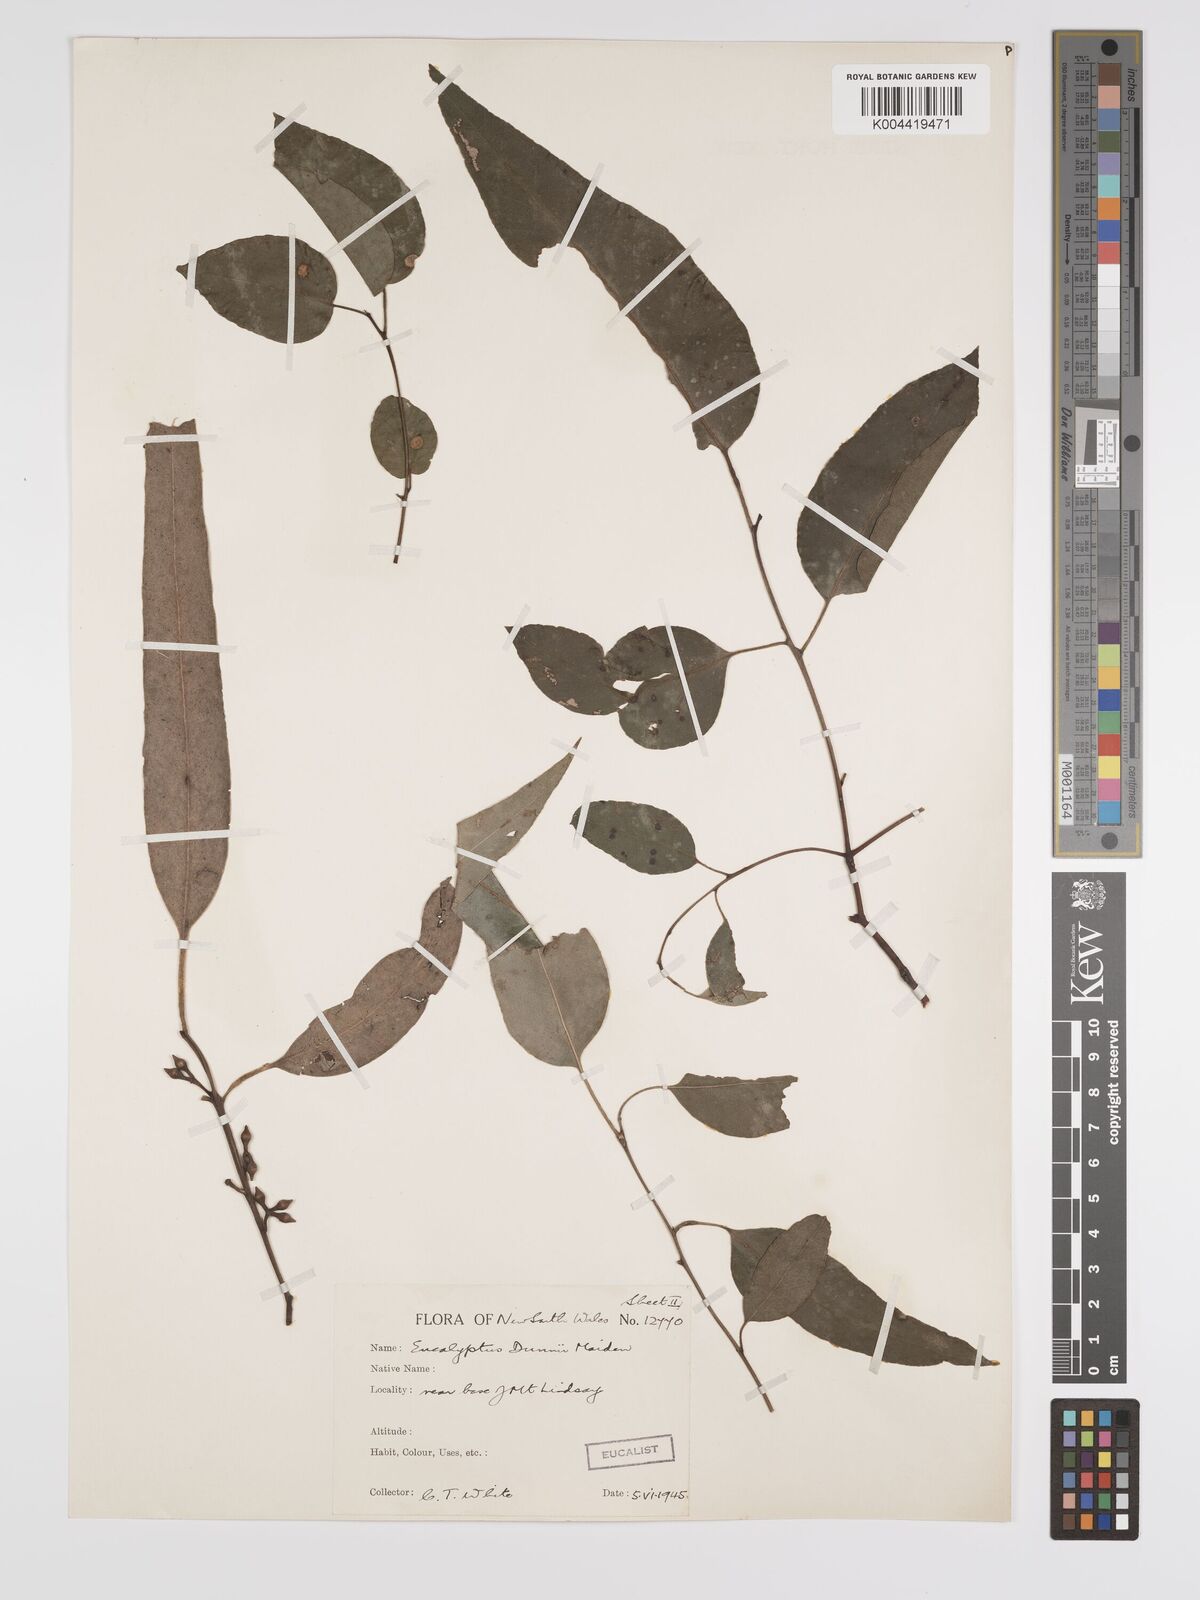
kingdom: Plantae
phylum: Tracheophyta
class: Magnoliopsida
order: Myrtales
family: Myrtaceae
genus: Eucalyptus
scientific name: Eucalyptus dunnii
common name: Dunn's white gum
